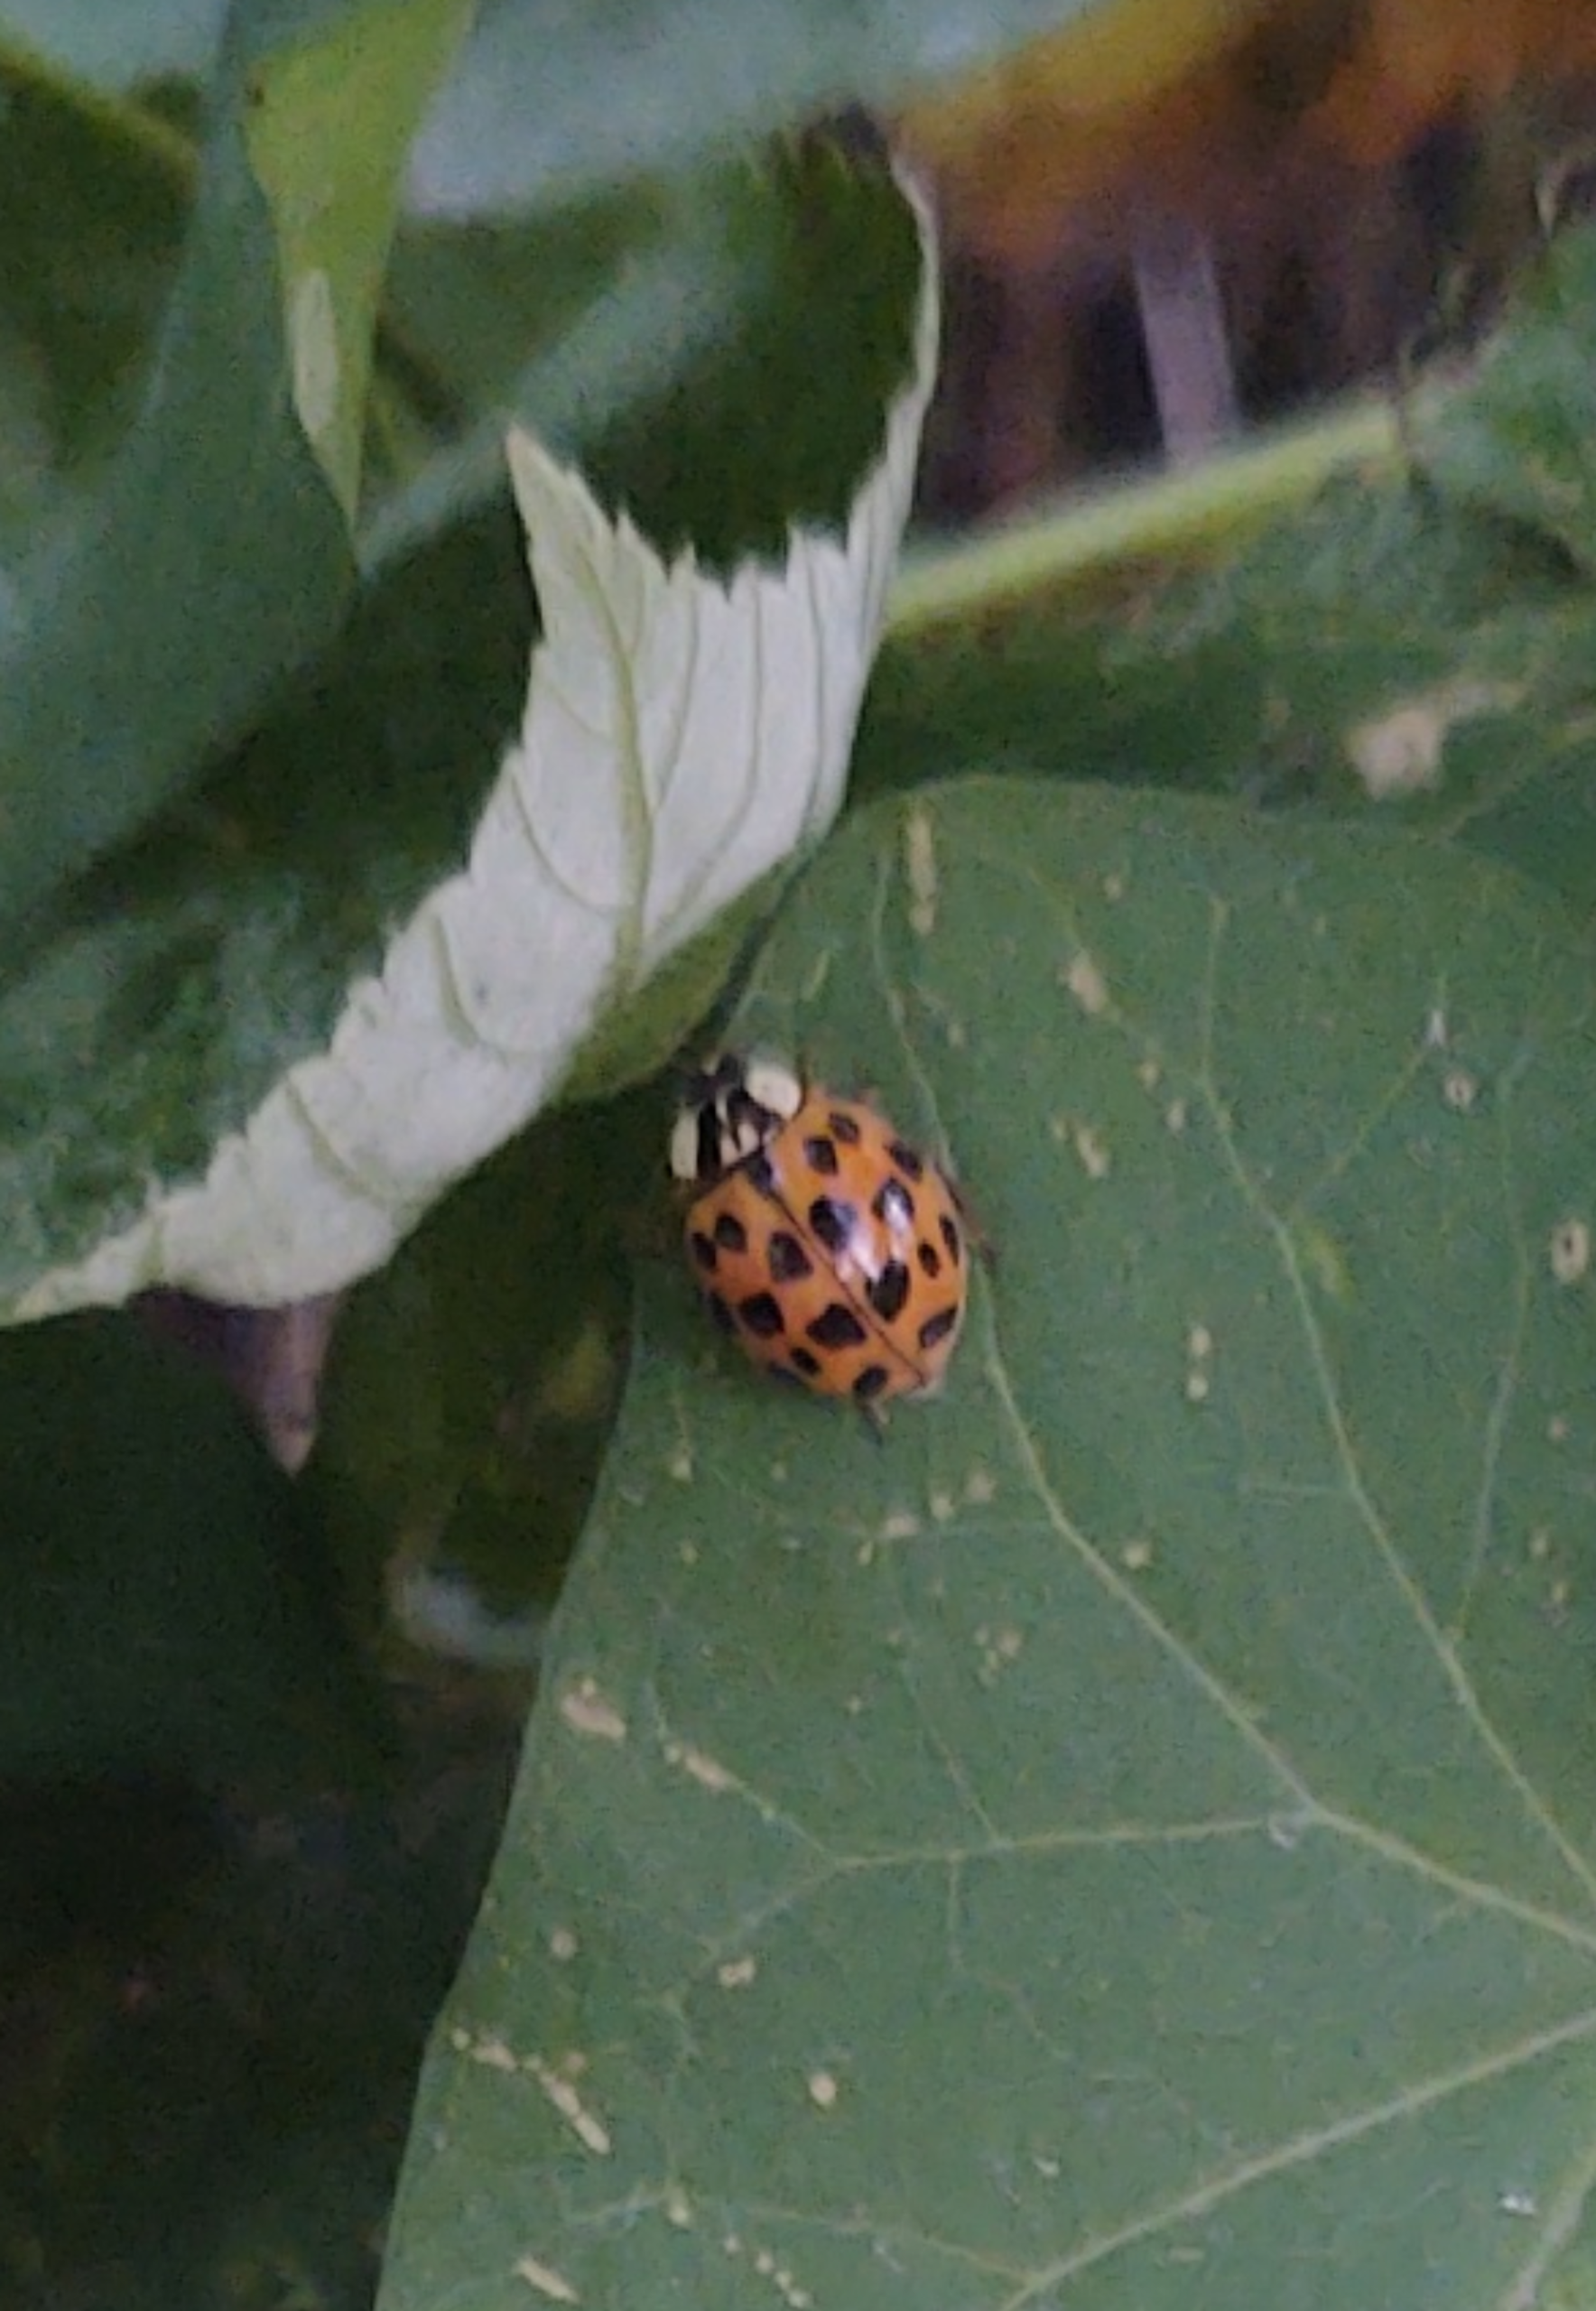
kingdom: Animalia
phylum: Arthropoda
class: Insecta
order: Coleoptera
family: Coccinellidae
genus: Harmonia
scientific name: Harmonia axyridis
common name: Harlekinmariehøne
